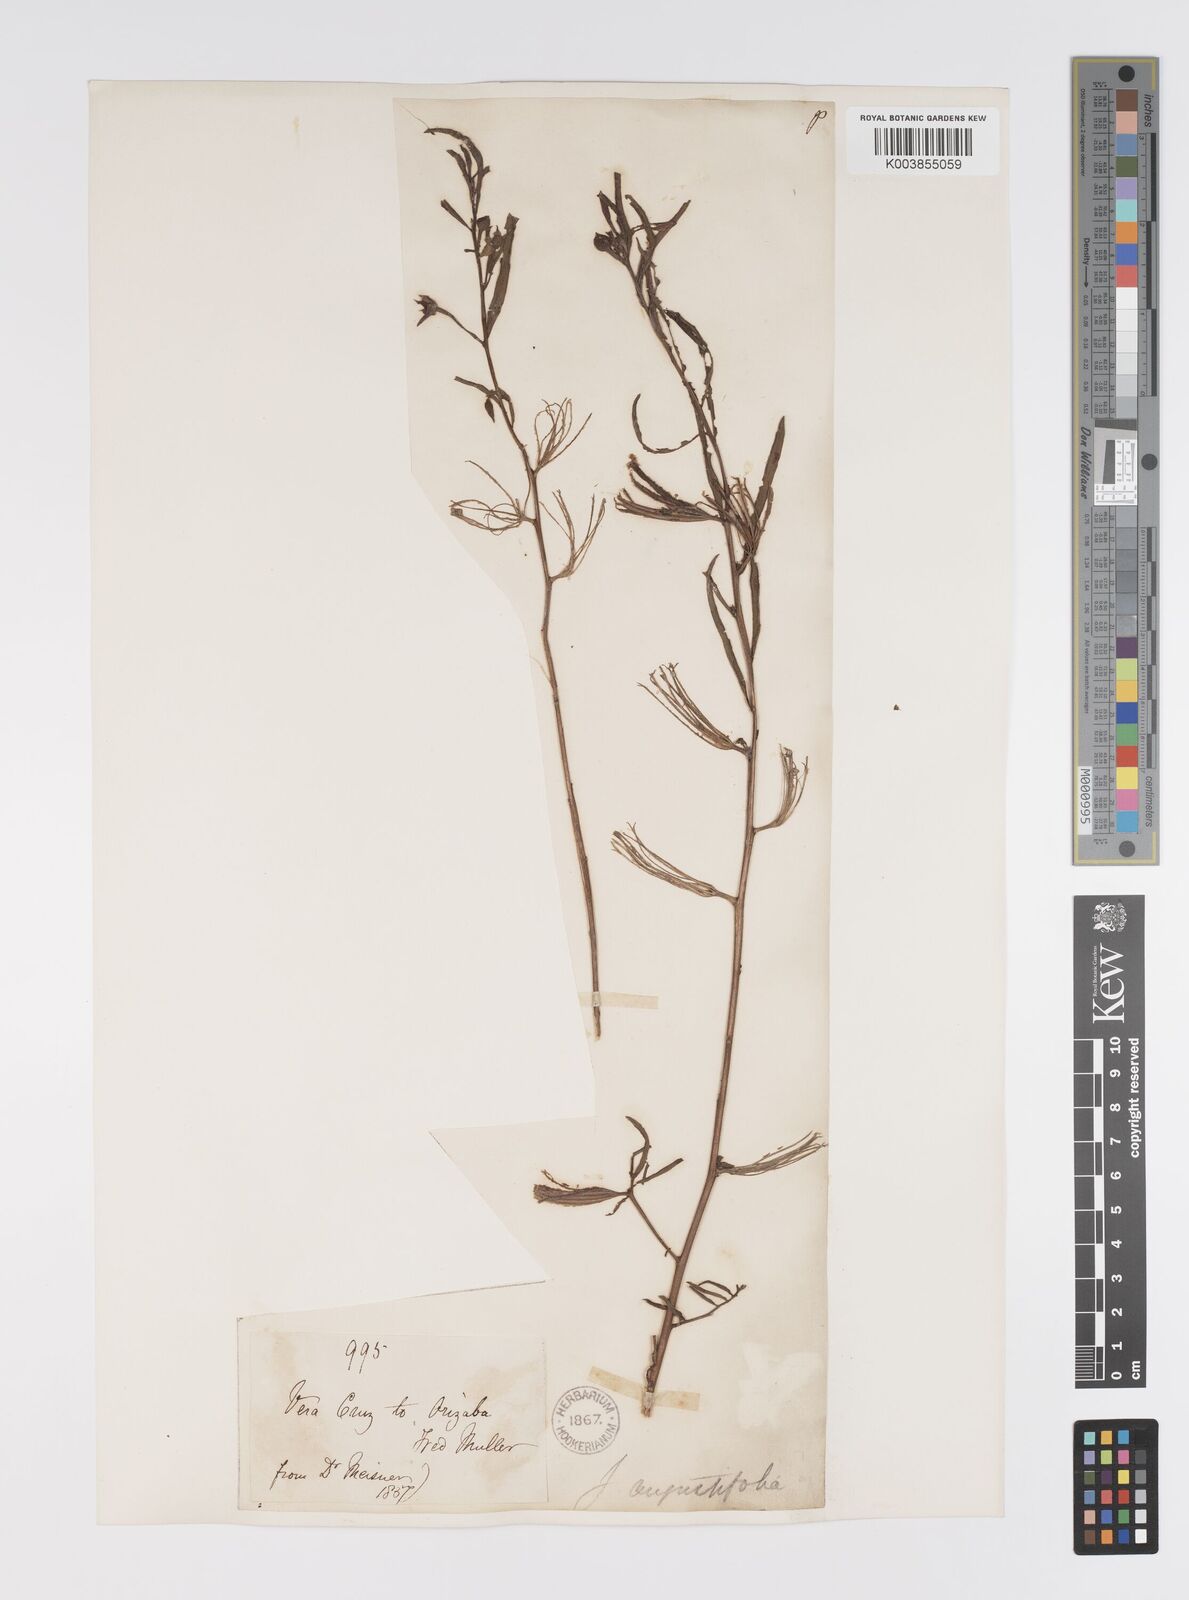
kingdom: Plantae
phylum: Tracheophyta
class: Magnoliopsida
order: Myrtales
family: Onagraceae
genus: Ludwigia
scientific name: Ludwigia octovalvis
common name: Water-primrose
